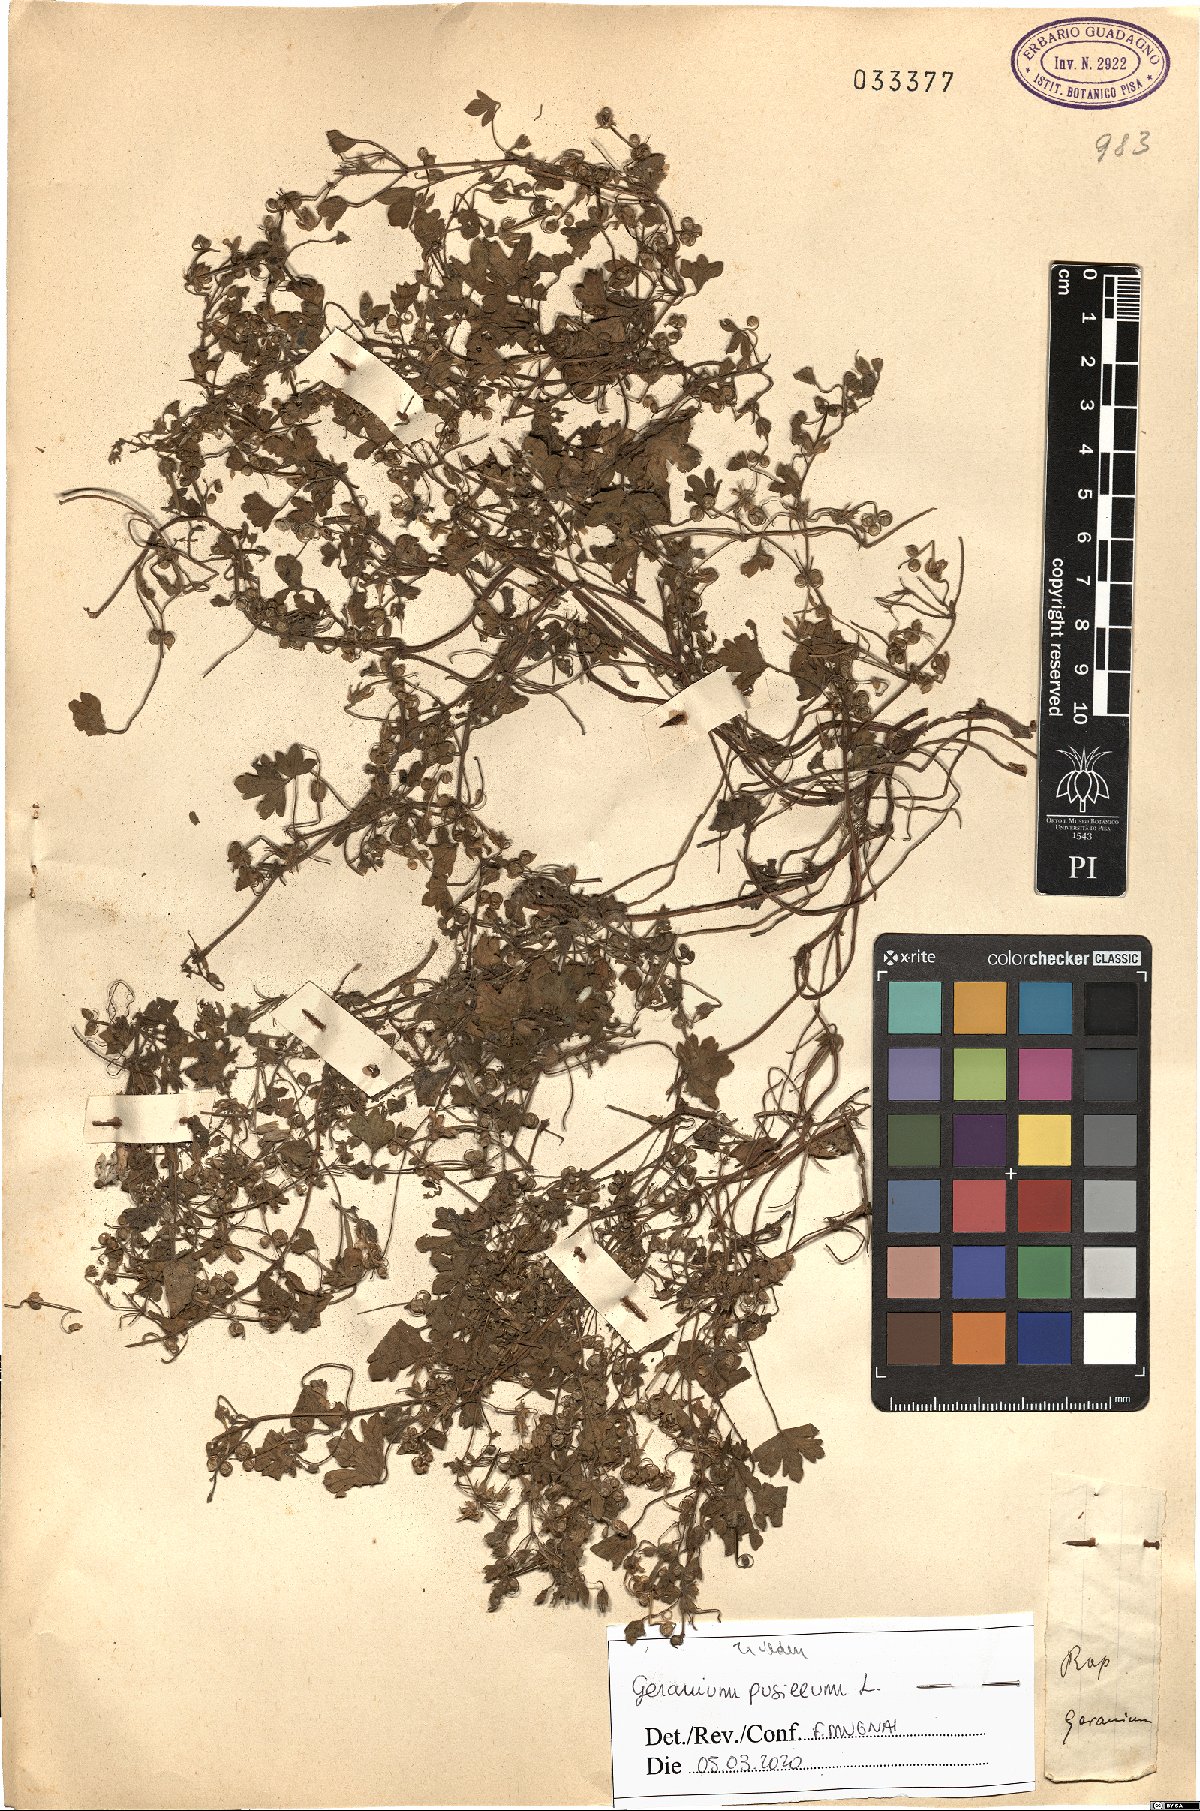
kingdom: Plantae
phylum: Tracheophyta
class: Magnoliopsida
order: Geraniales
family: Geraniaceae
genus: Geranium
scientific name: Geranium pusillum
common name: Small geranium
